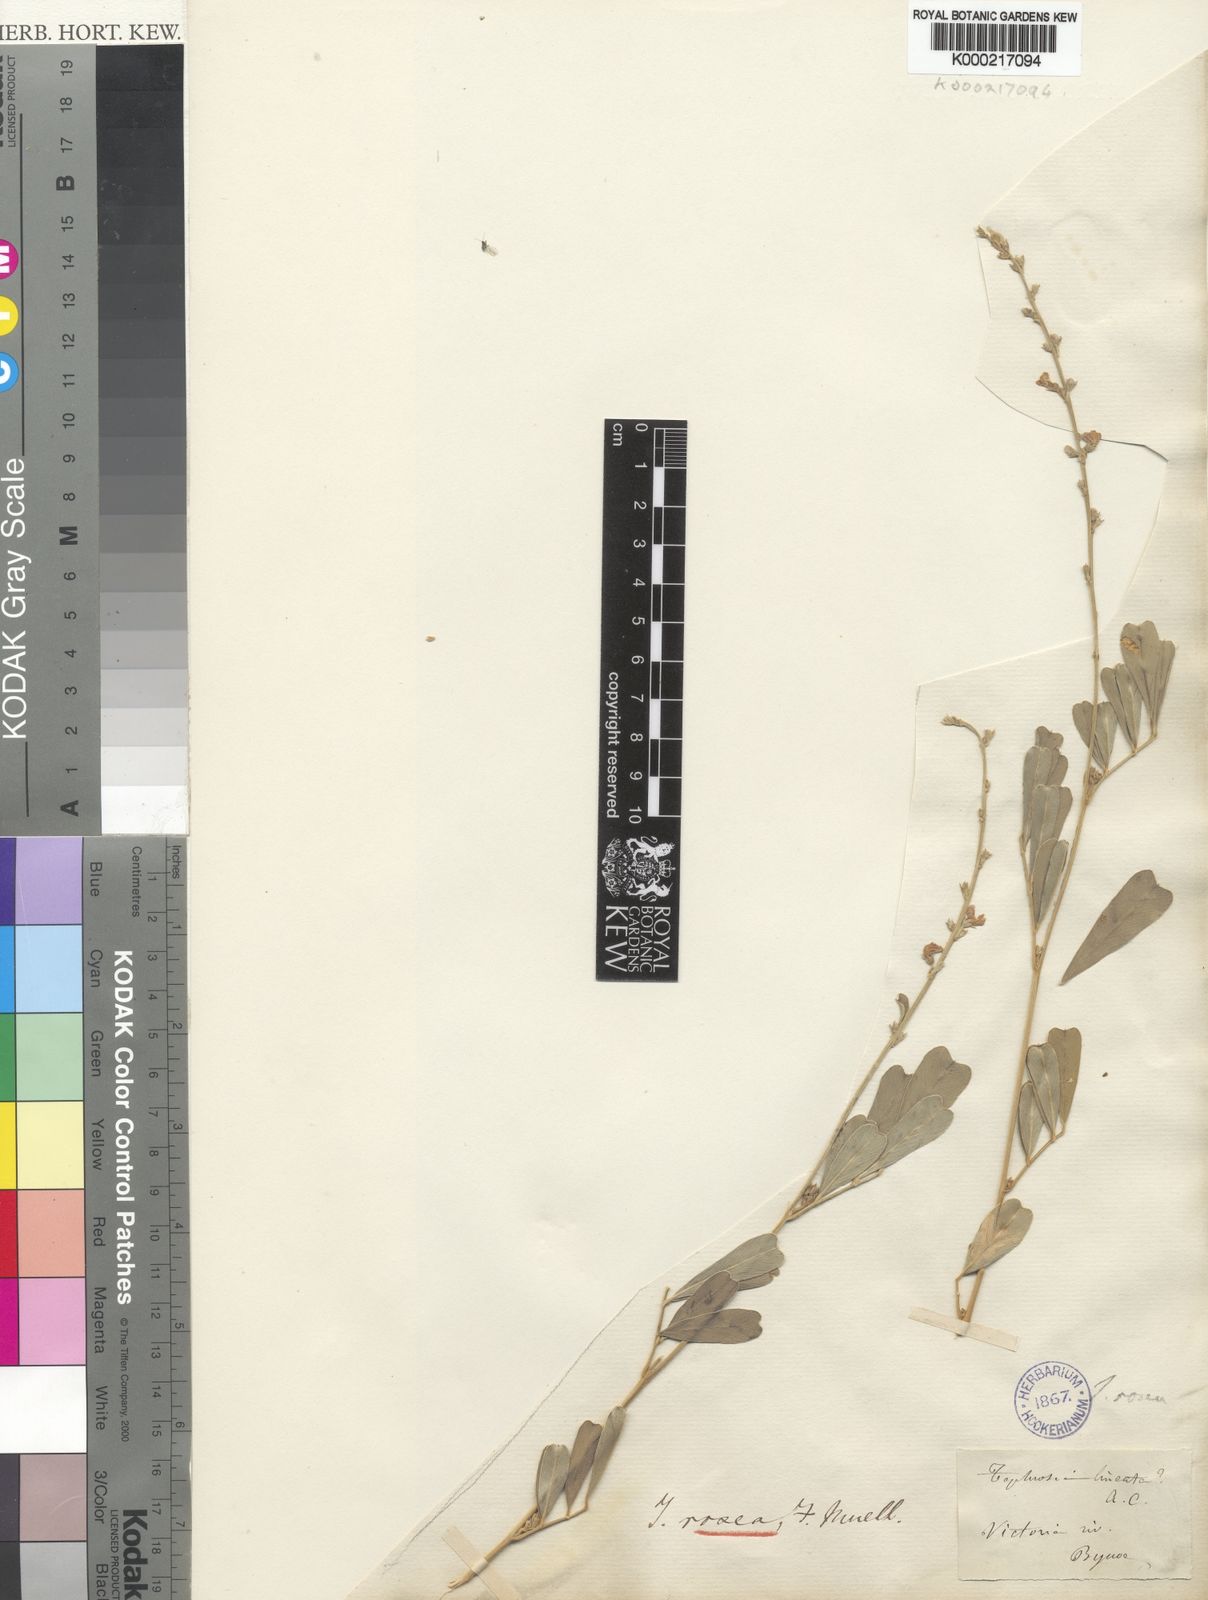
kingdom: Plantae
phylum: Tracheophyta
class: Magnoliopsida
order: Fabales
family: Fabaceae
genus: Tephrosia
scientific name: Tephrosia rosea
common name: Flinders river-poison
